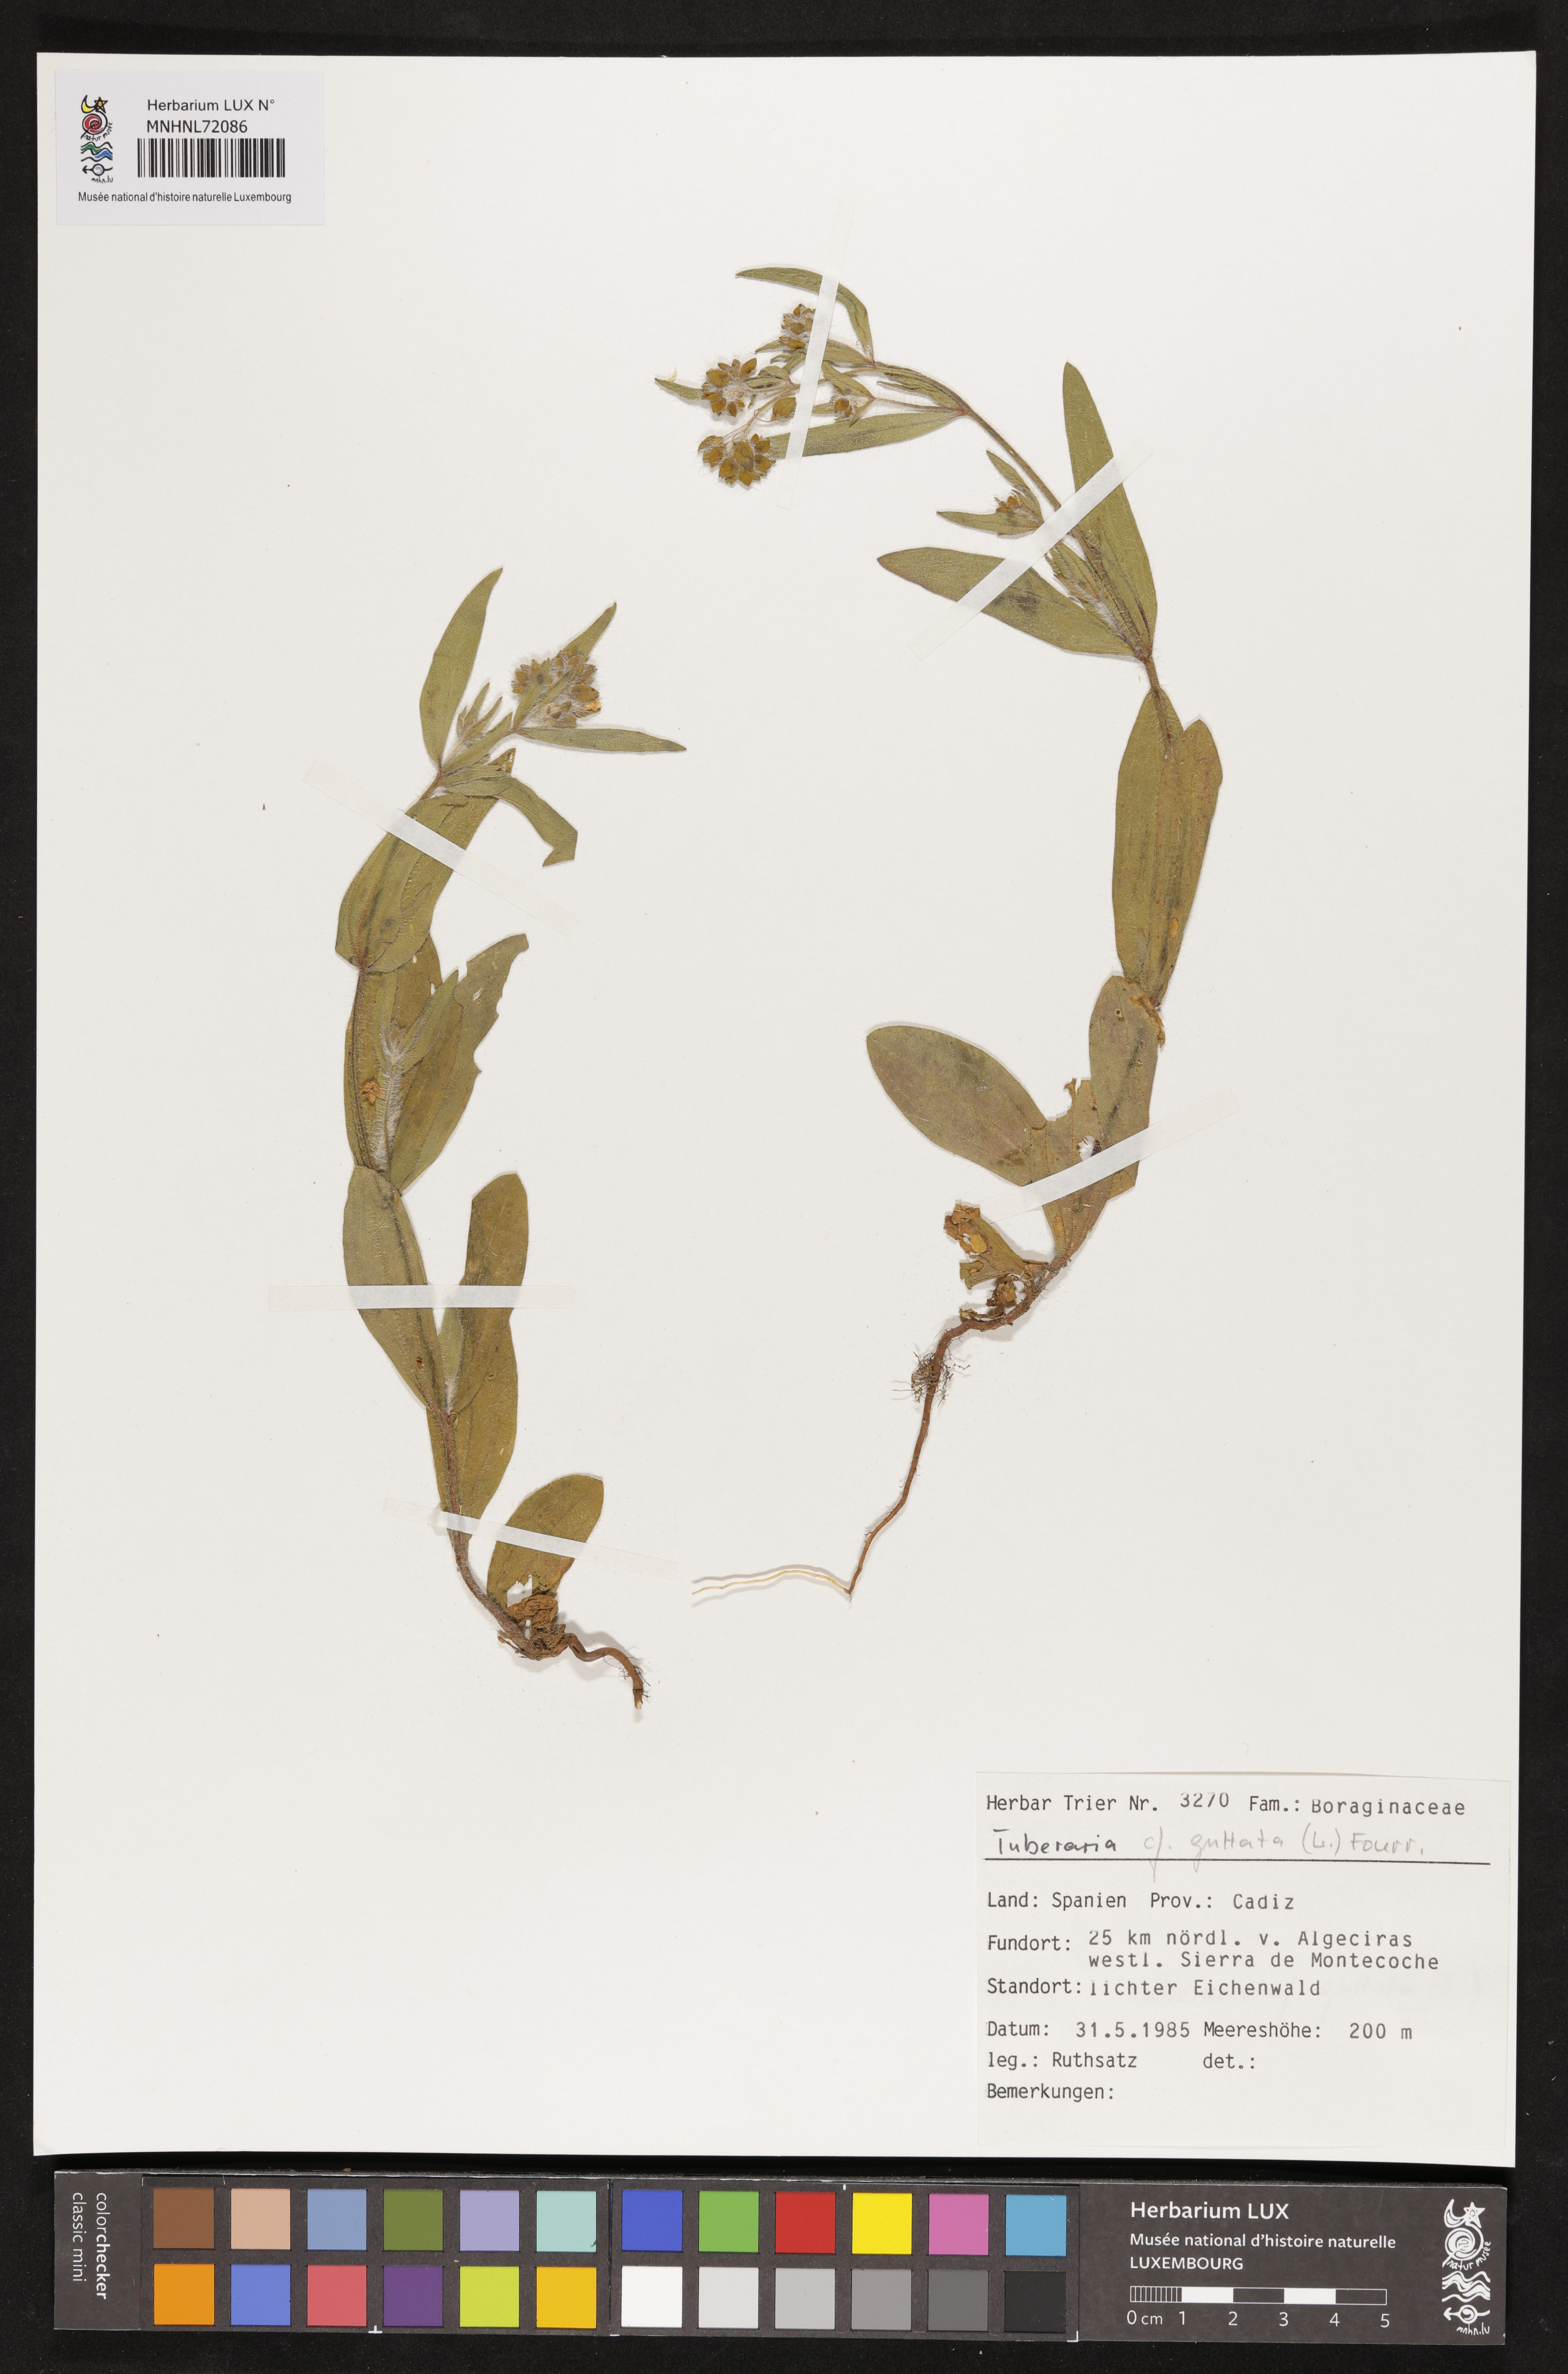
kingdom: Plantae
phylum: Tracheophyta
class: Magnoliopsida
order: Malvales
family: Cistaceae
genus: Tuberaria
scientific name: Tuberaria guttata
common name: Spotted rock-rose
